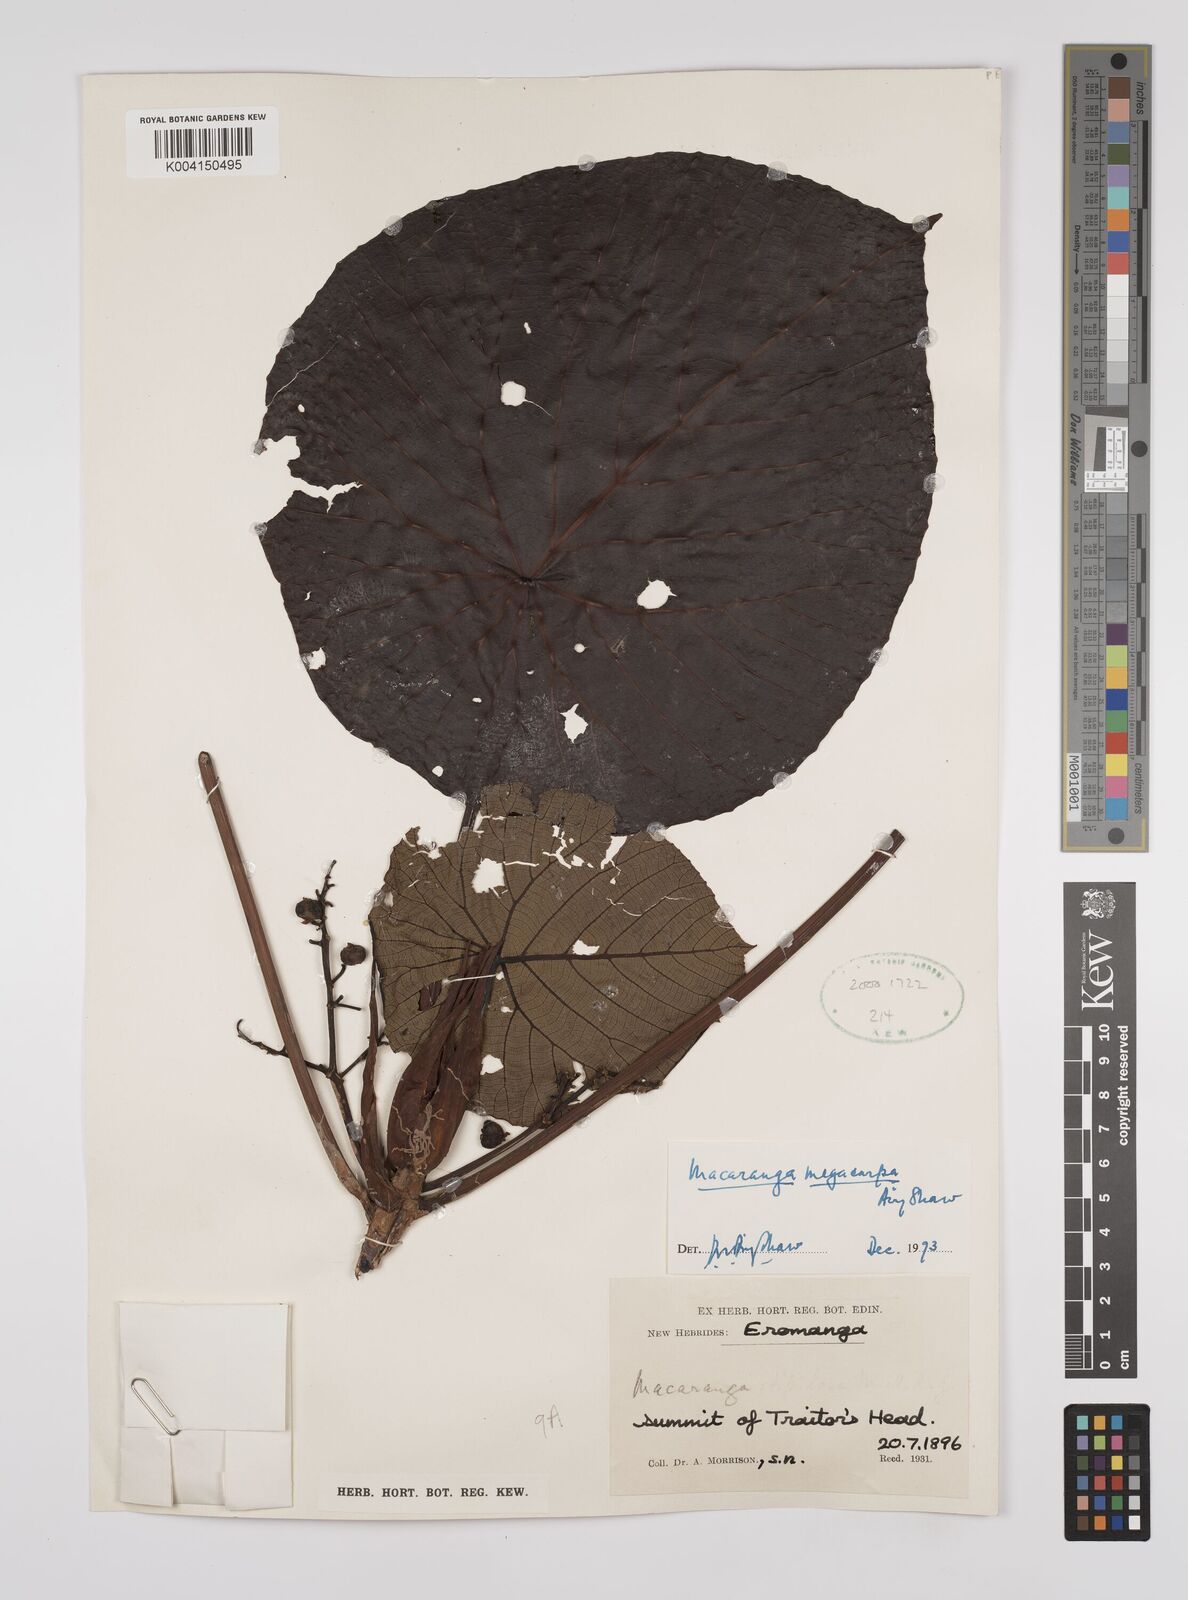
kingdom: Plantae
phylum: Tracheophyta
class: Magnoliopsida
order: Malpighiales
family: Euphorbiaceae
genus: Macaranga
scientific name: Macaranga megacarpa
